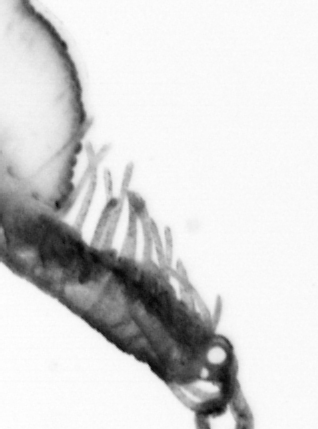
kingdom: Animalia
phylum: Annelida
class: Polychaeta
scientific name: Polychaeta
